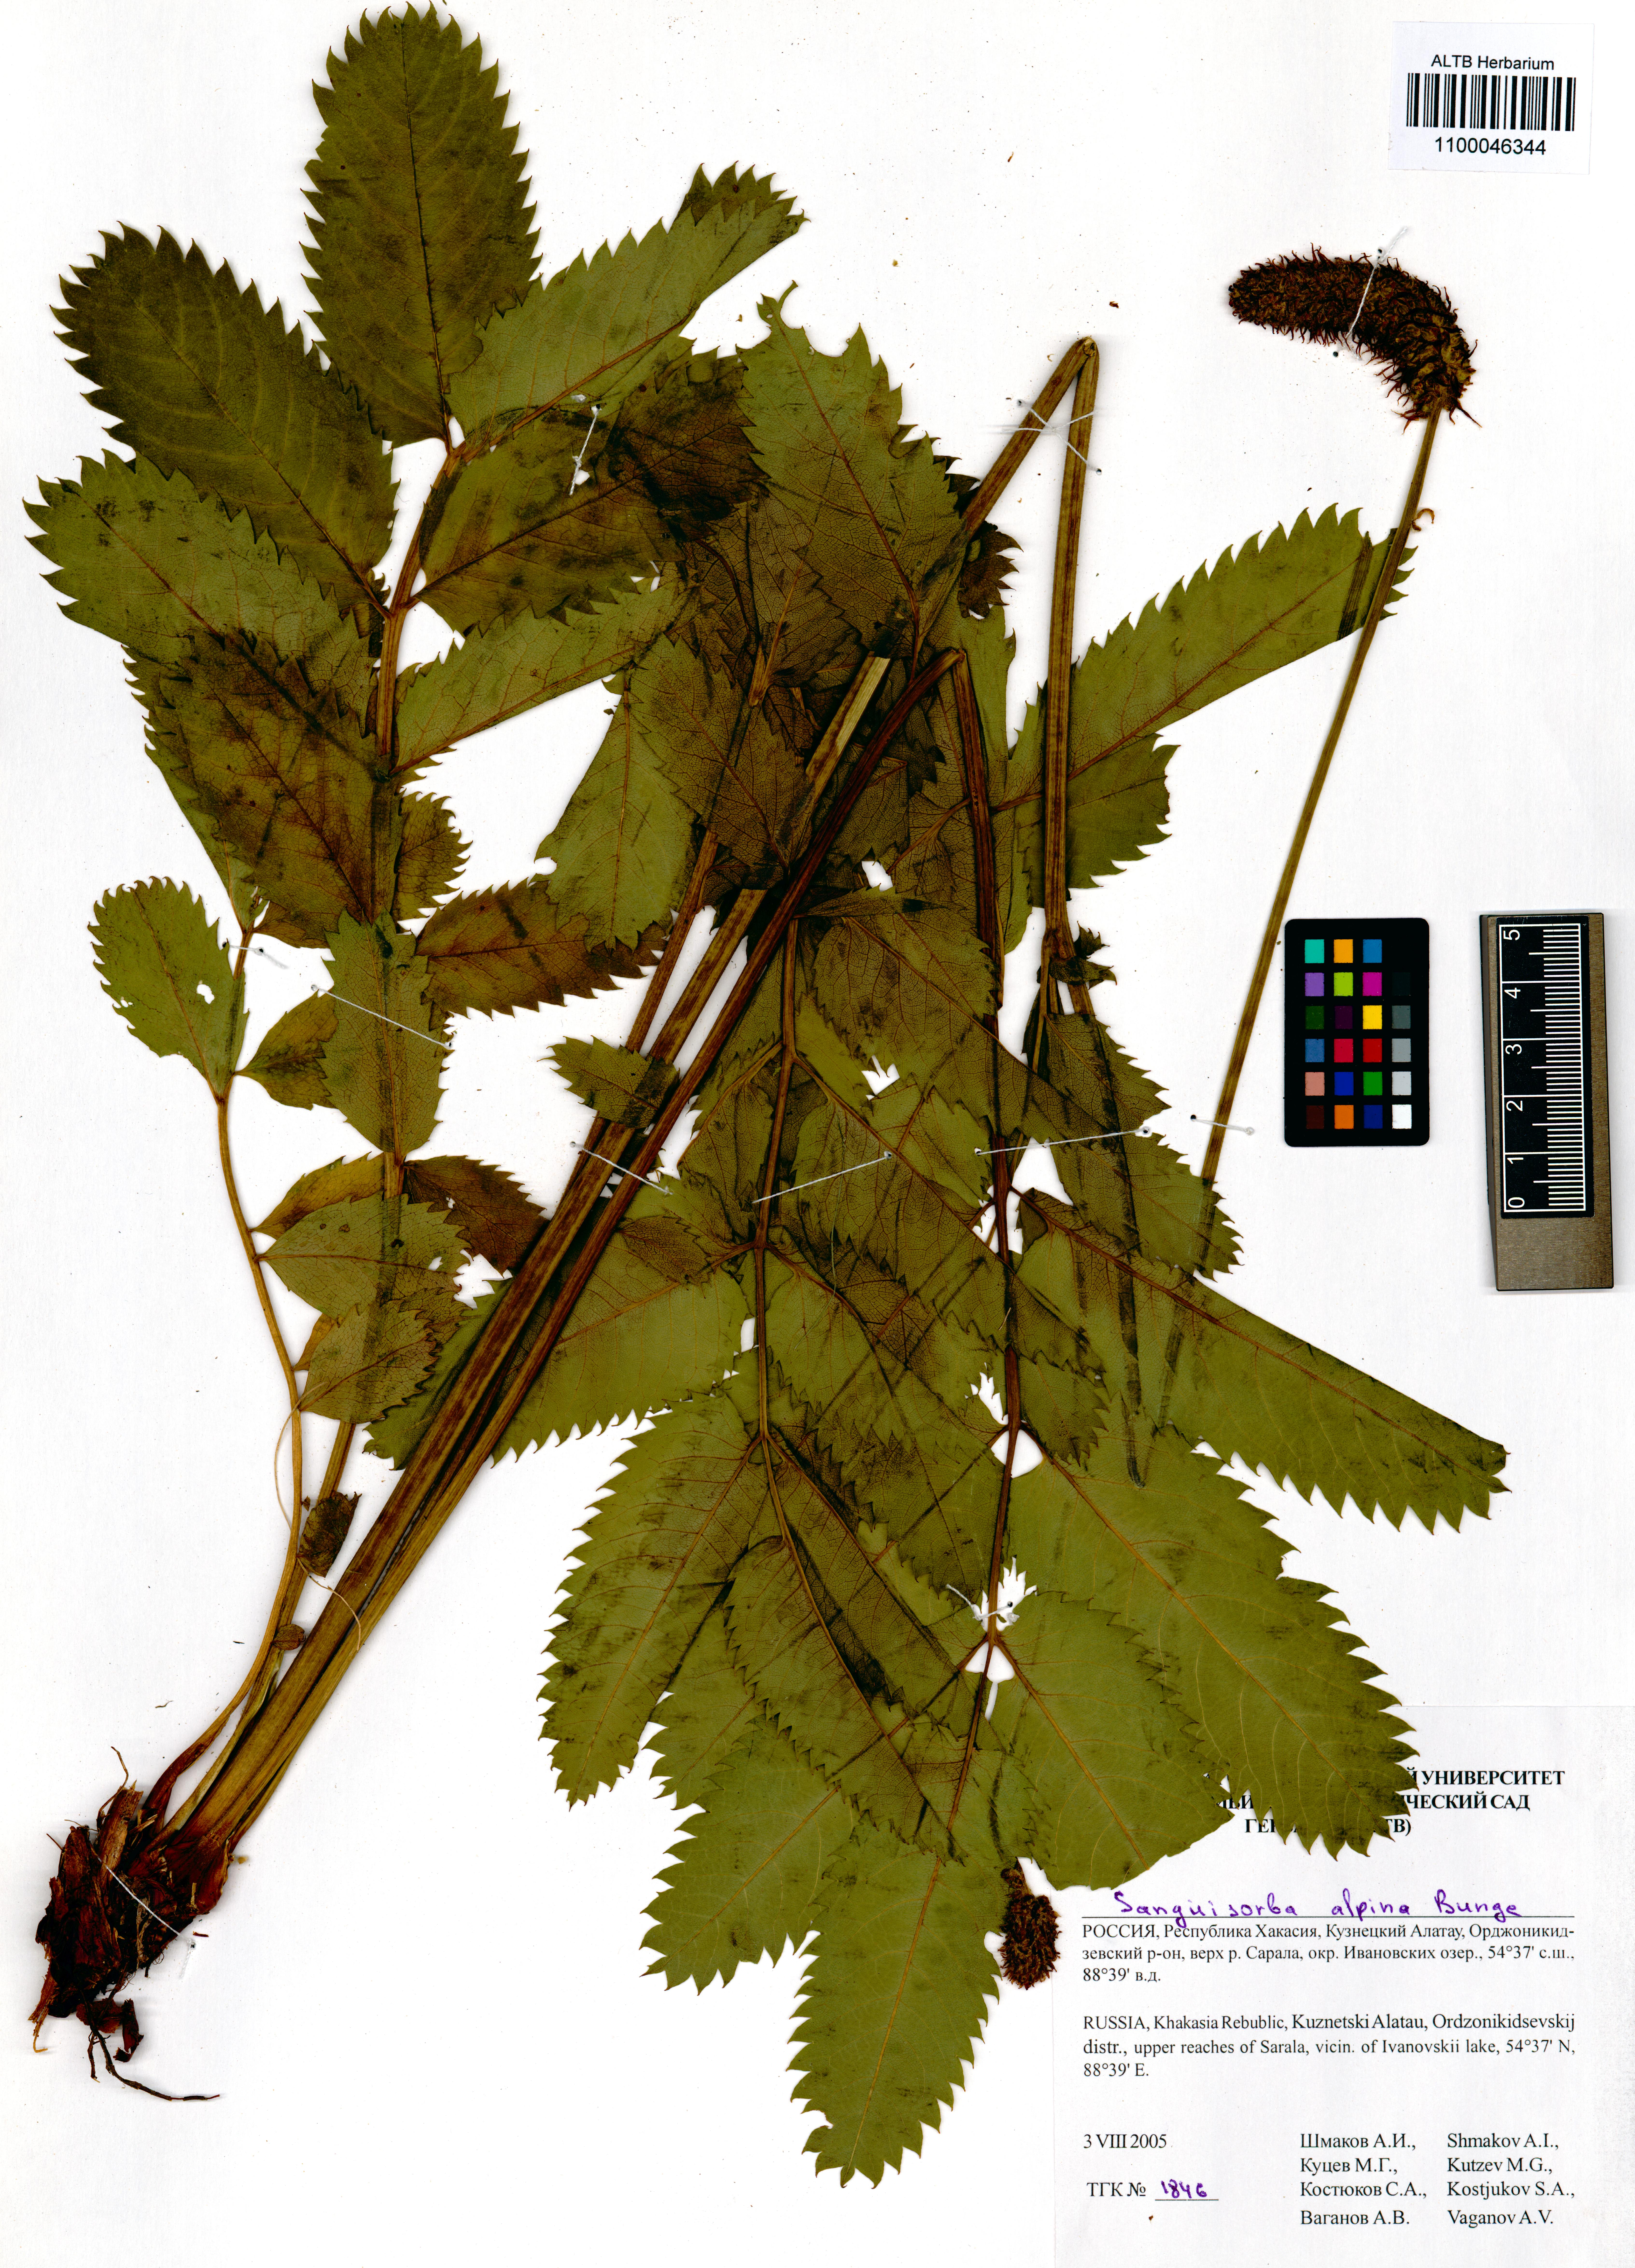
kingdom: Plantae
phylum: Tracheophyta
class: Magnoliopsida
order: Rosales
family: Rosaceae
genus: Sanguisorba
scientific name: Sanguisorba alpina
